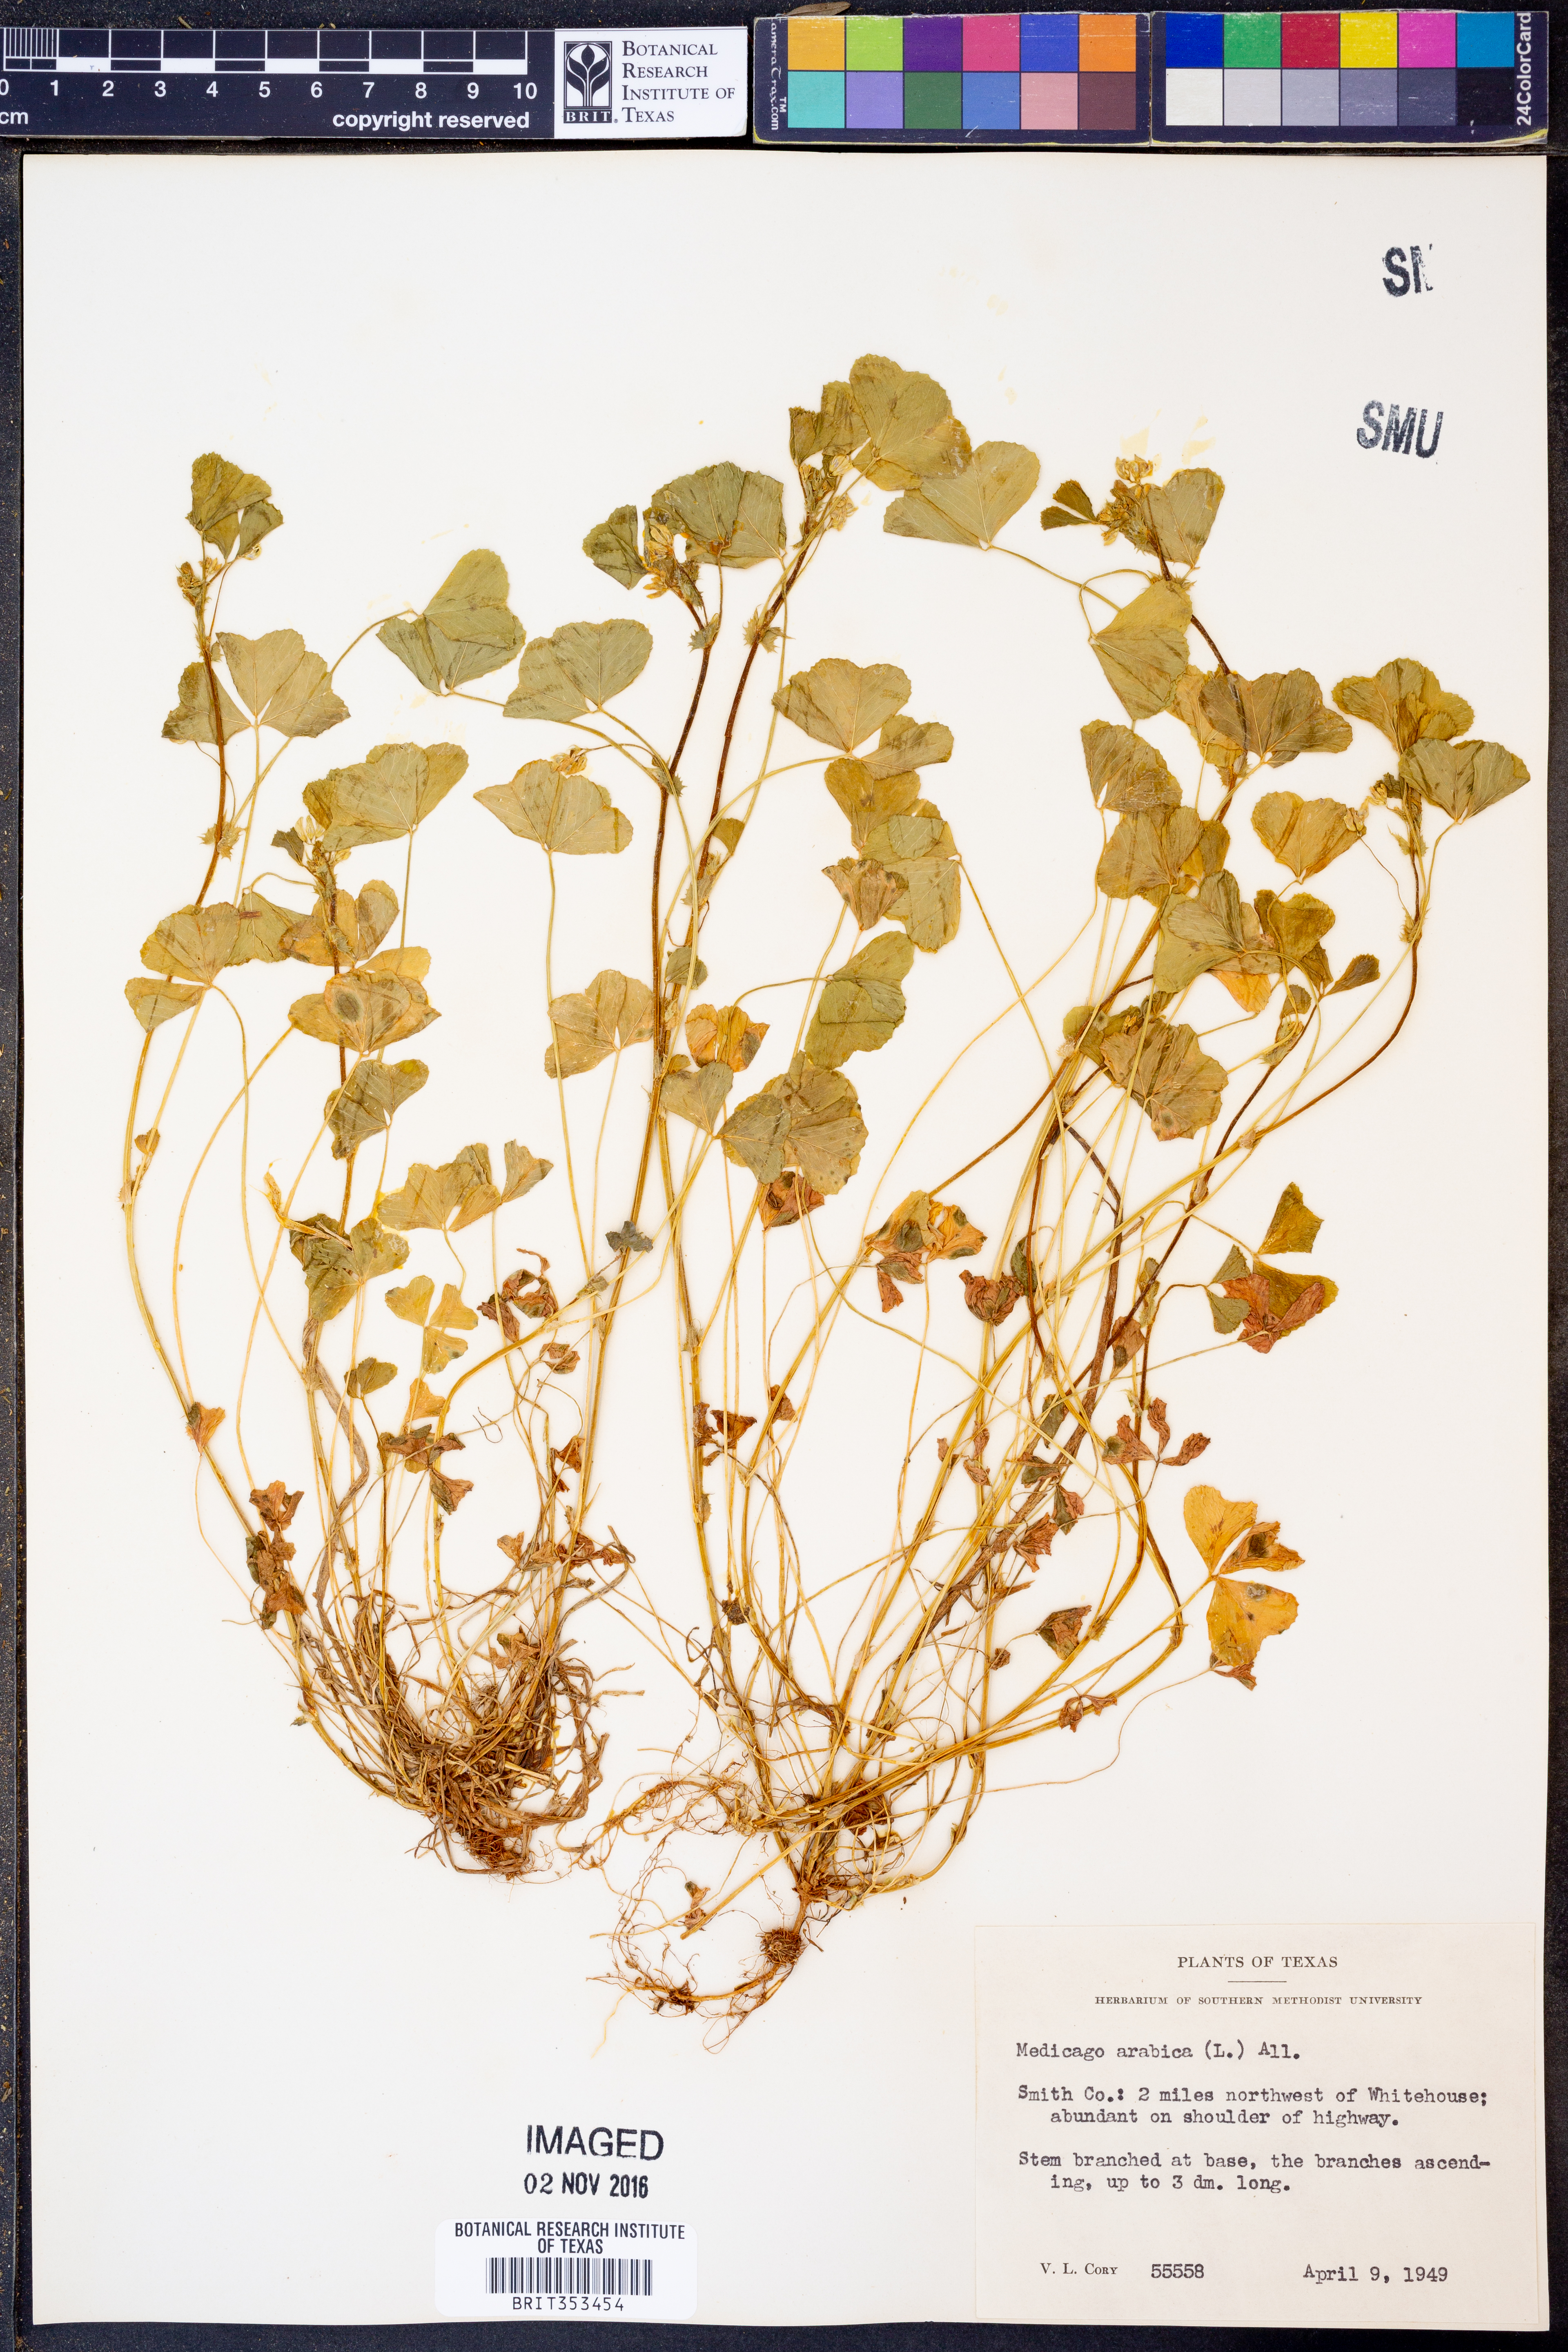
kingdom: Plantae
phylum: Tracheophyta
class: Magnoliopsida
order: Fabales
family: Fabaceae
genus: Medicago
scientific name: Medicago arabica
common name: Spotted medick
